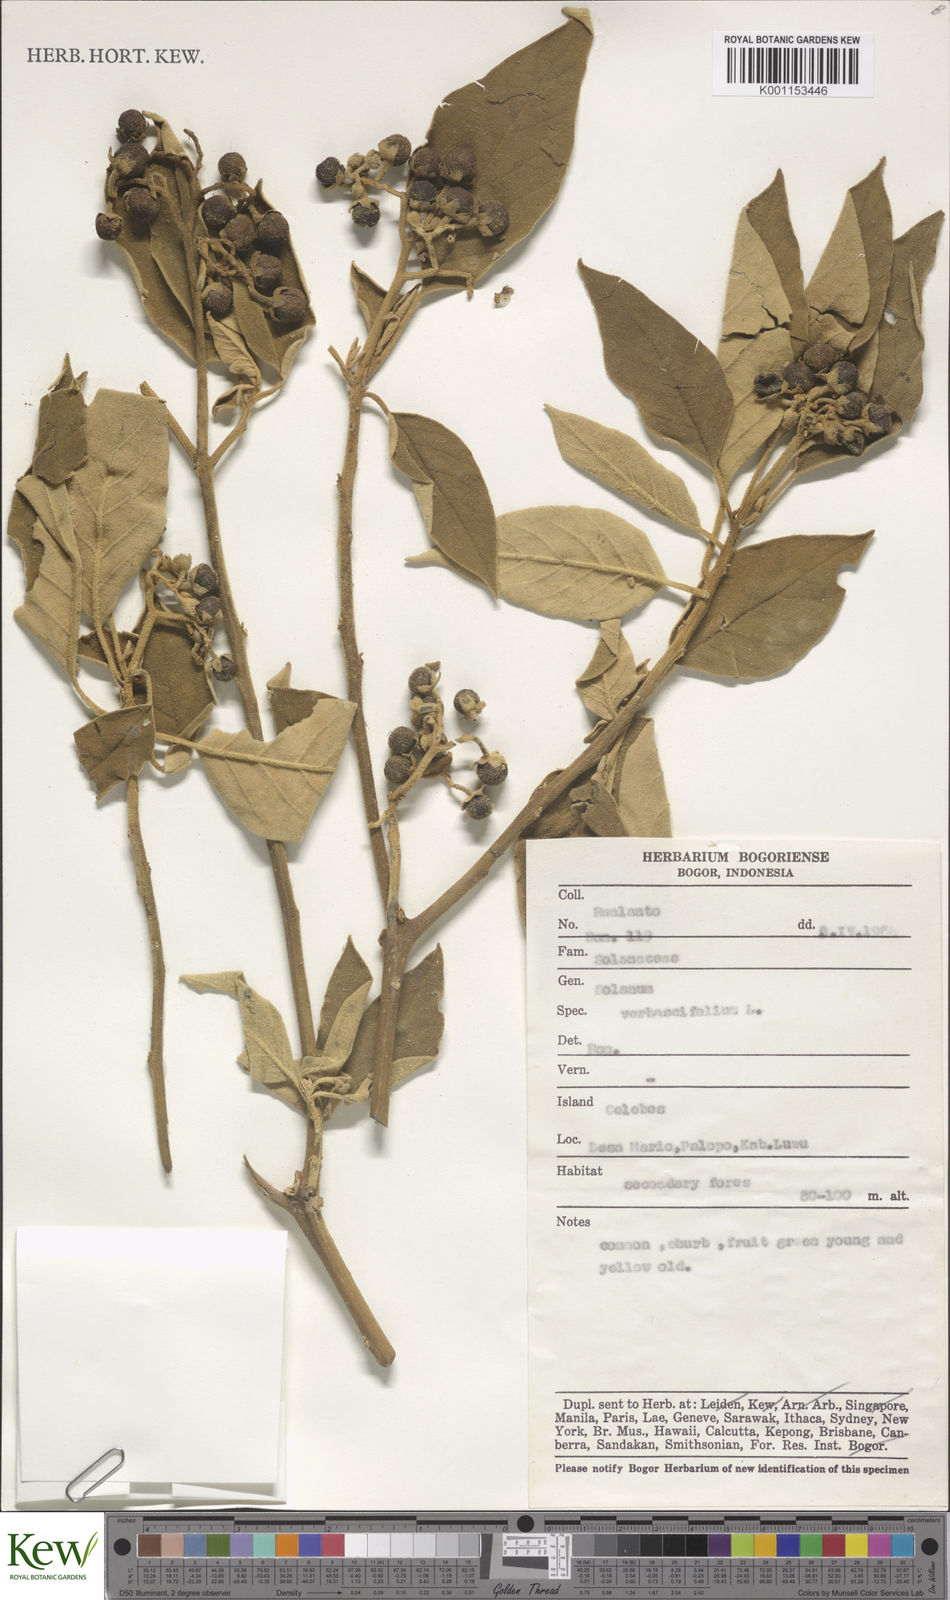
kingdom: Plantae
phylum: Tracheophyta
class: Magnoliopsida
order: Solanales
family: Solanaceae
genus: Solanum
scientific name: Solanum erianthum
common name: Tobacco-tree
